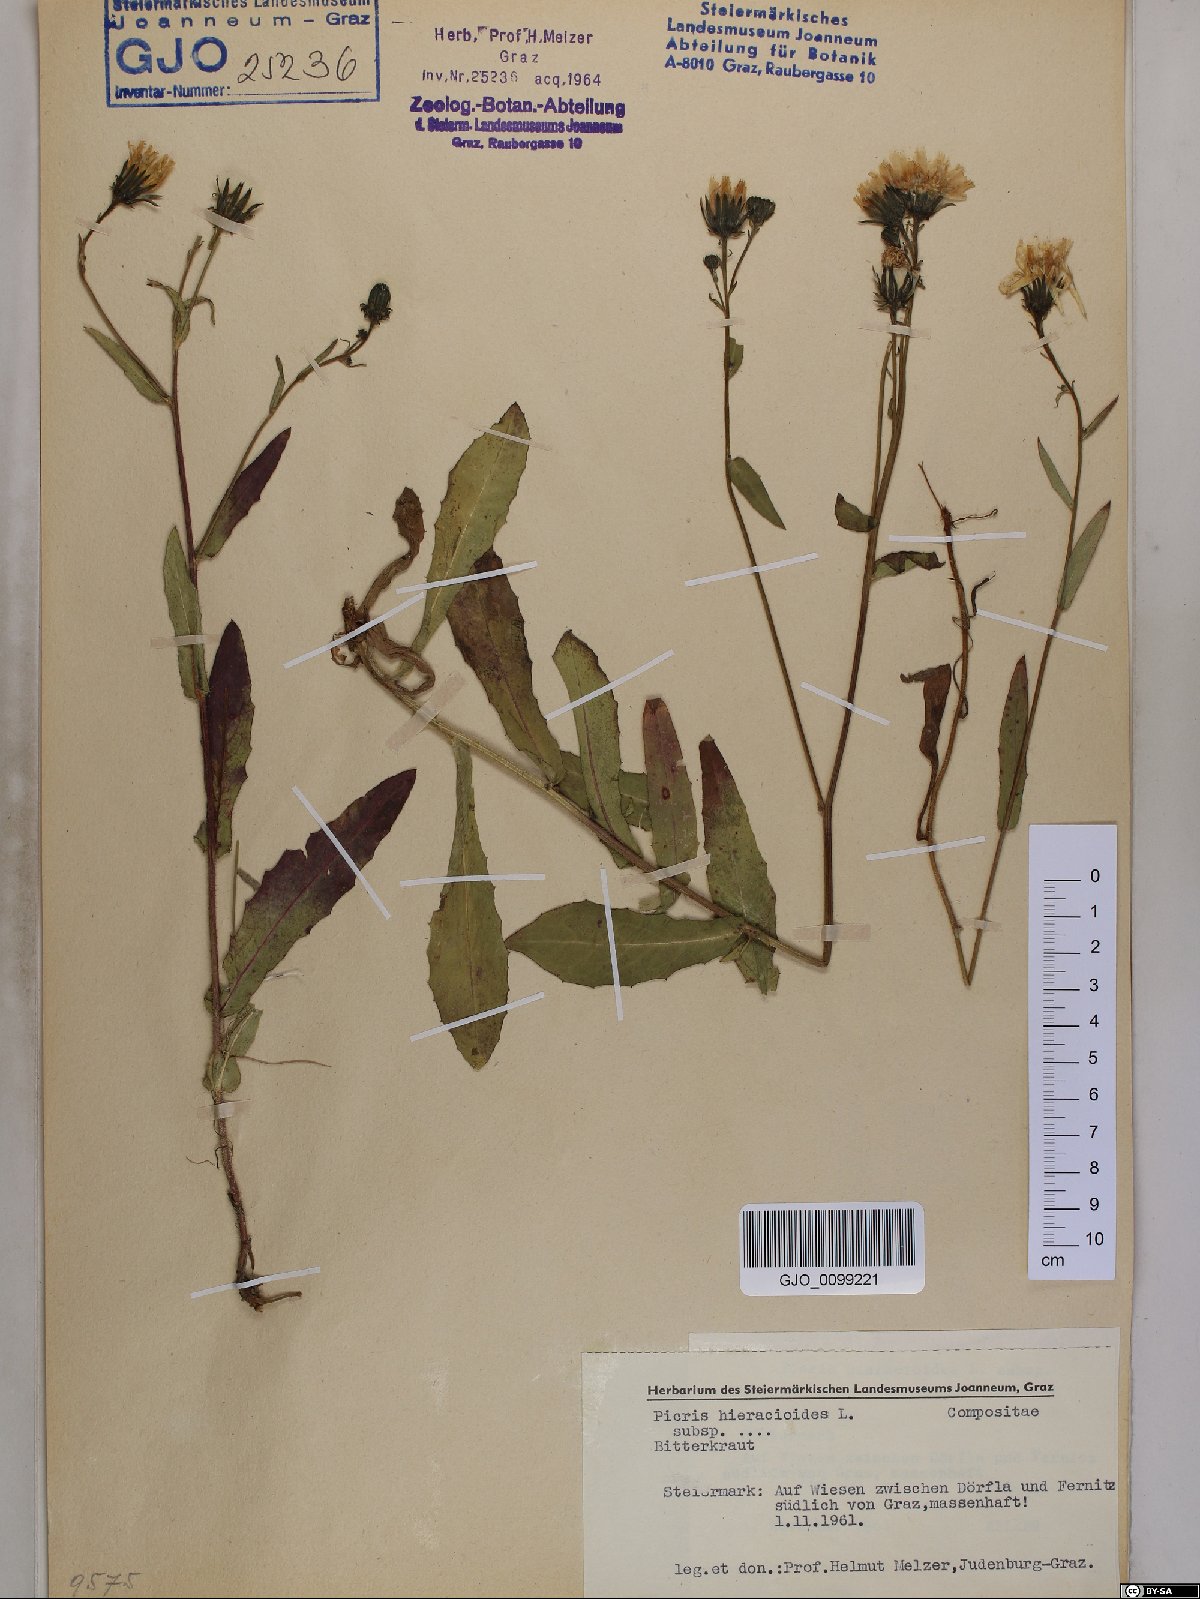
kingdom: Plantae
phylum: Tracheophyta
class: Magnoliopsida
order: Asterales
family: Asteraceae
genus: Picris
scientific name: Picris hieracioides
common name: Hawkweed oxtongue
